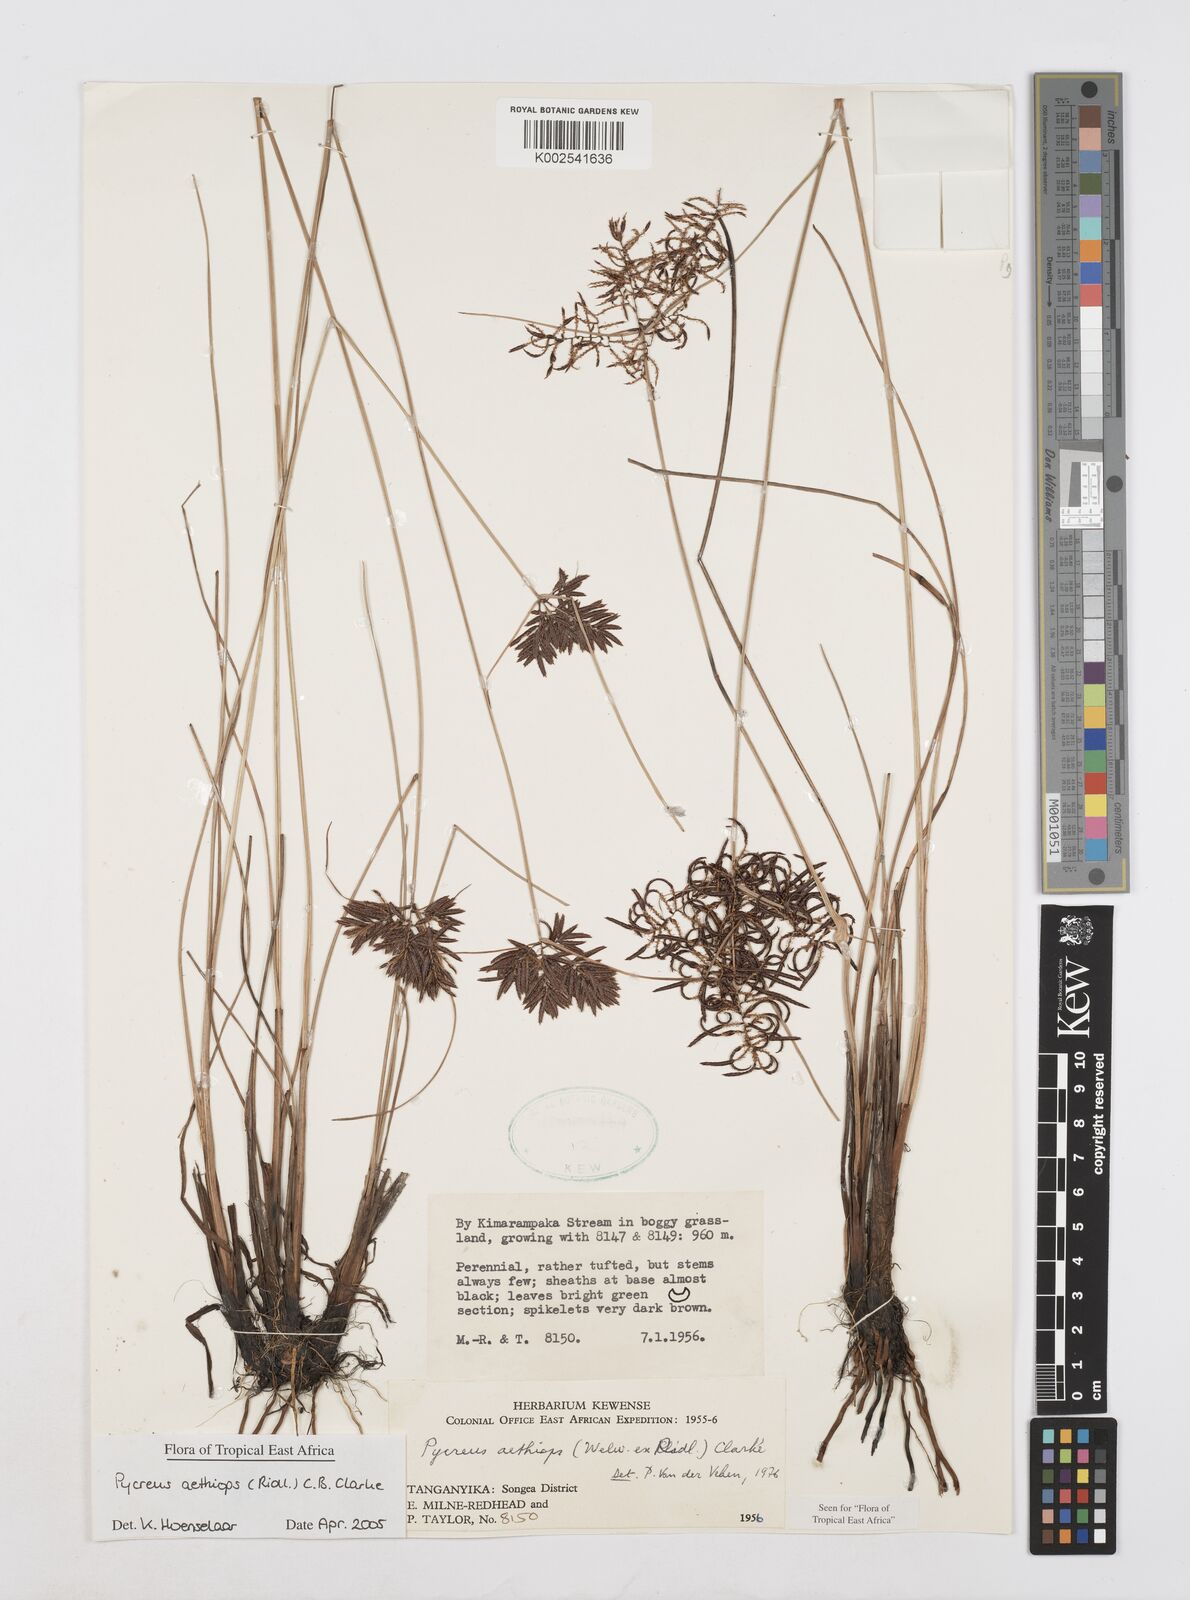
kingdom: Plantae
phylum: Tracheophyta
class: Liliopsida
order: Poales
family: Cyperaceae
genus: Cyperus
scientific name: Cyperus aethiops
